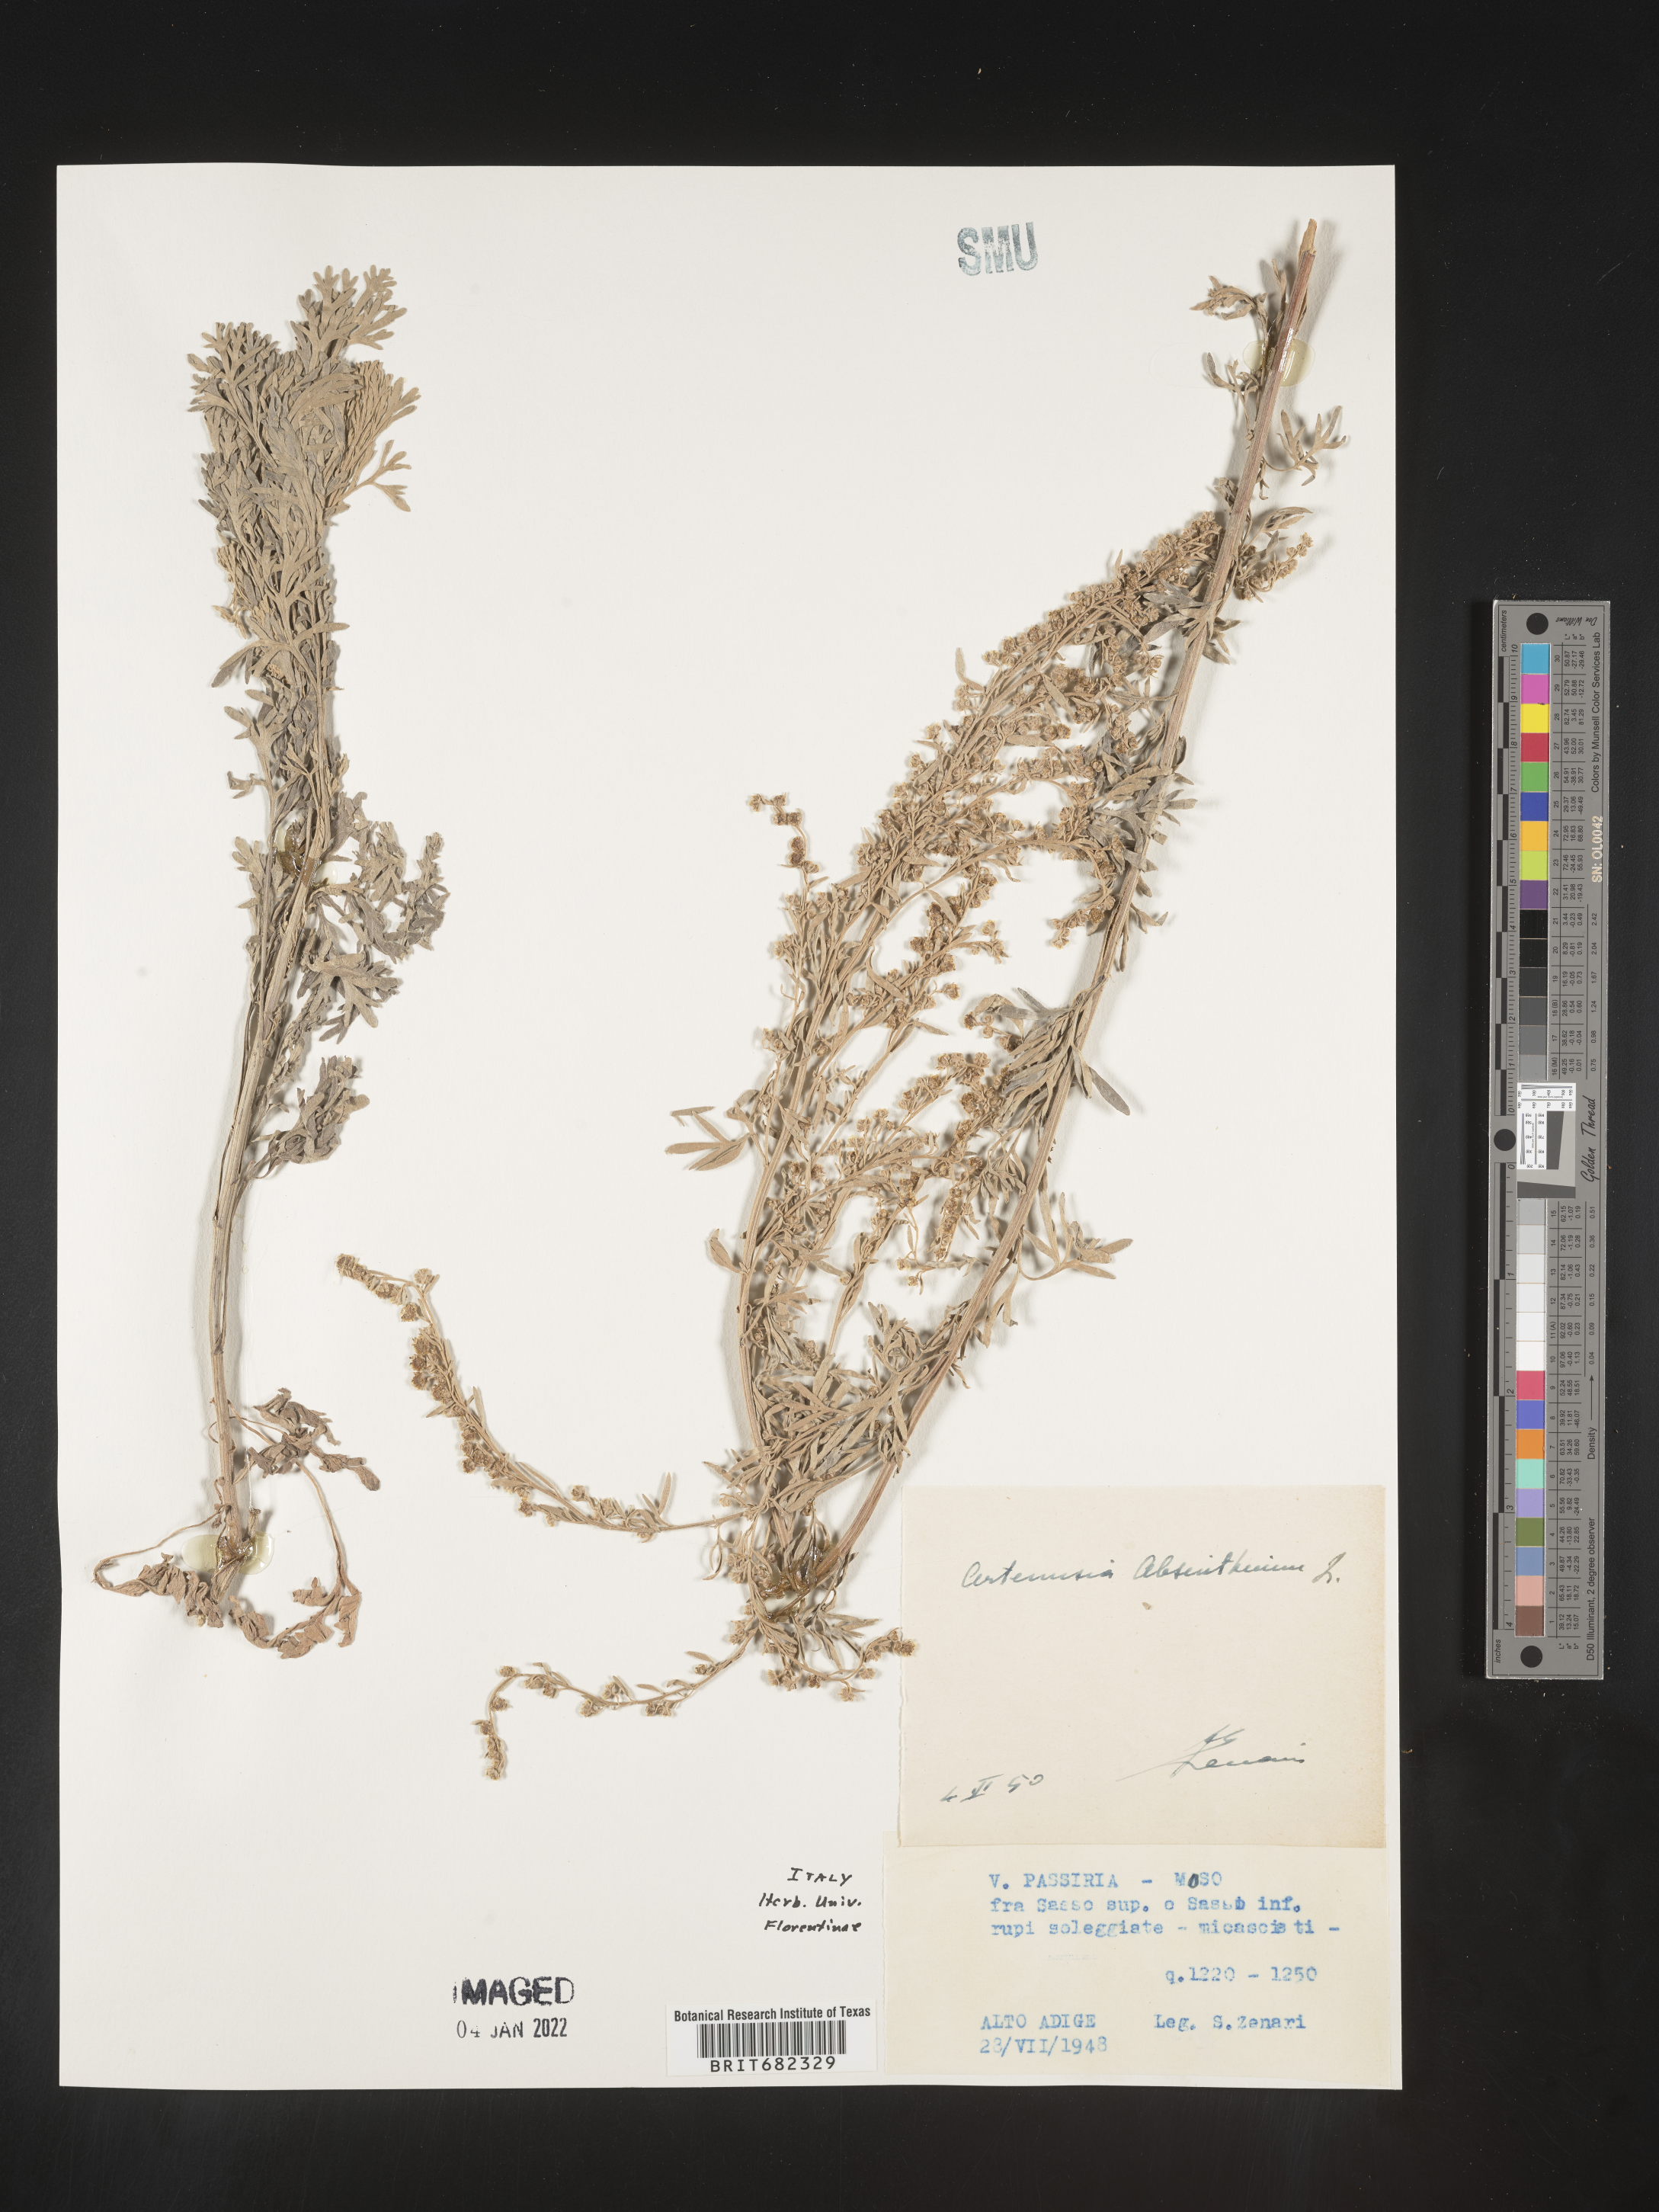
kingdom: Plantae
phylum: Tracheophyta
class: Magnoliopsida
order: Asterales
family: Asteraceae
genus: Artemisia
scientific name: Artemisia
